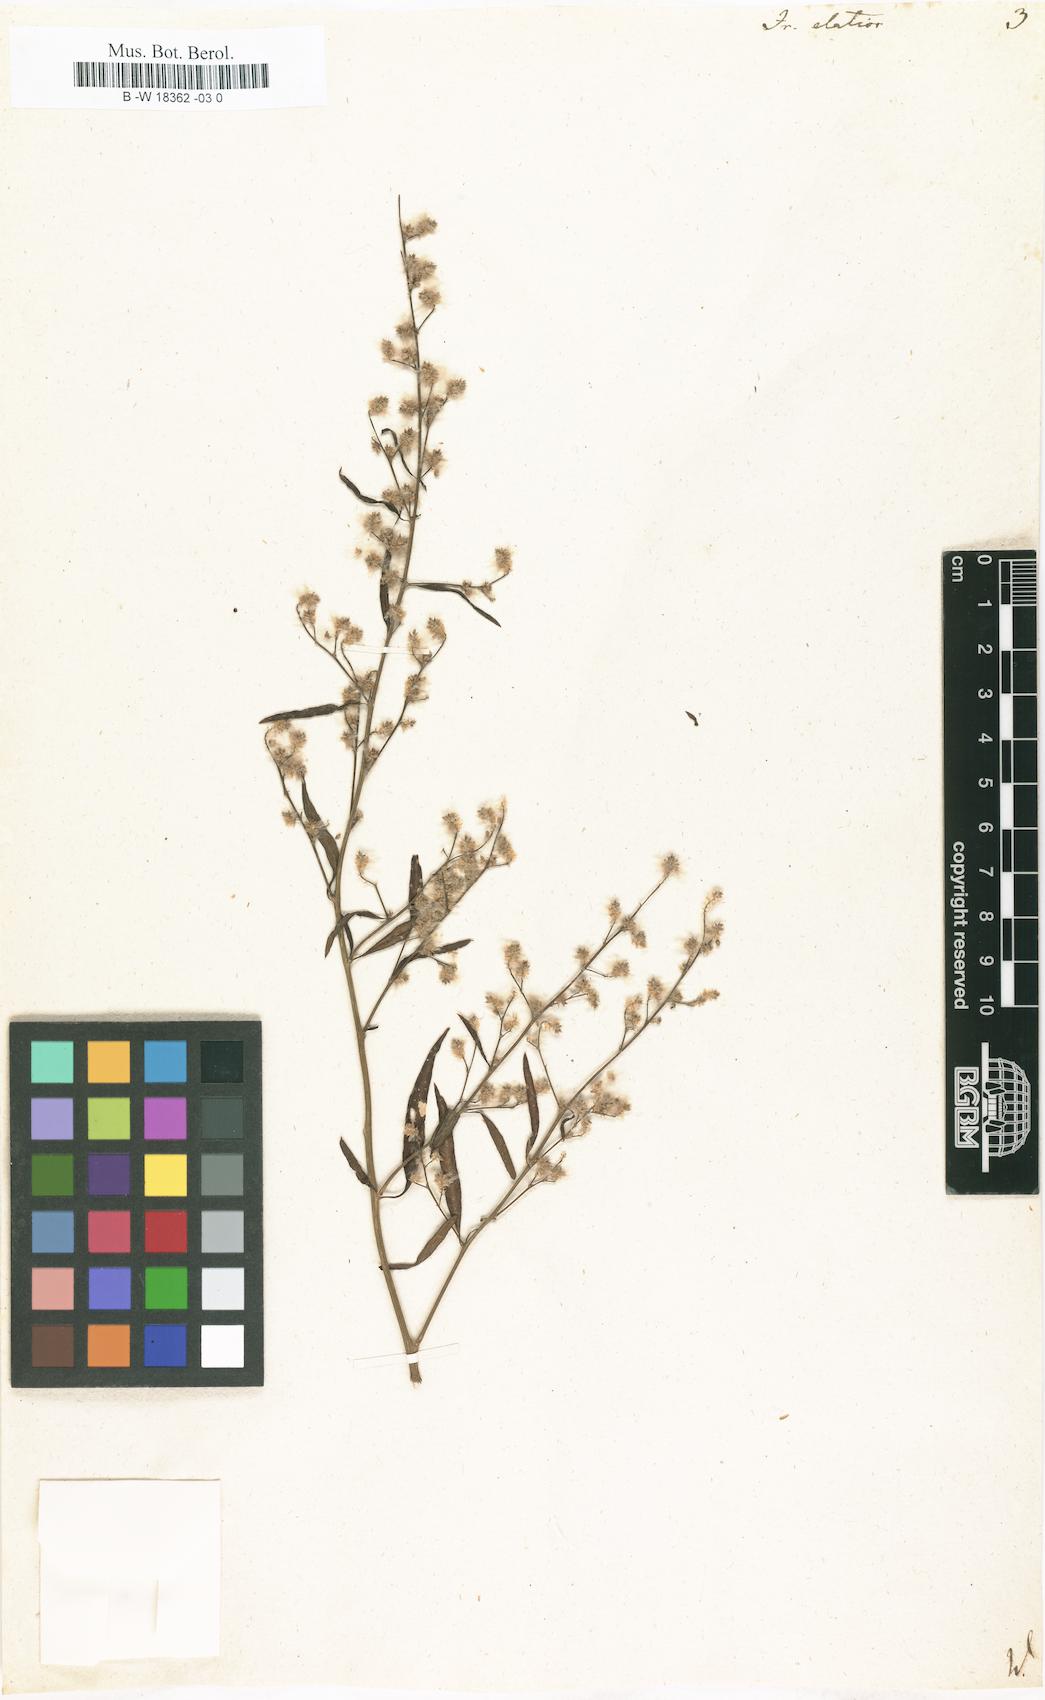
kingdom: Plantae
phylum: Tracheophyta
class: Magnoliopsida
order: Caryophyllales
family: Amaranthaceae
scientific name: Amaranthaceae
